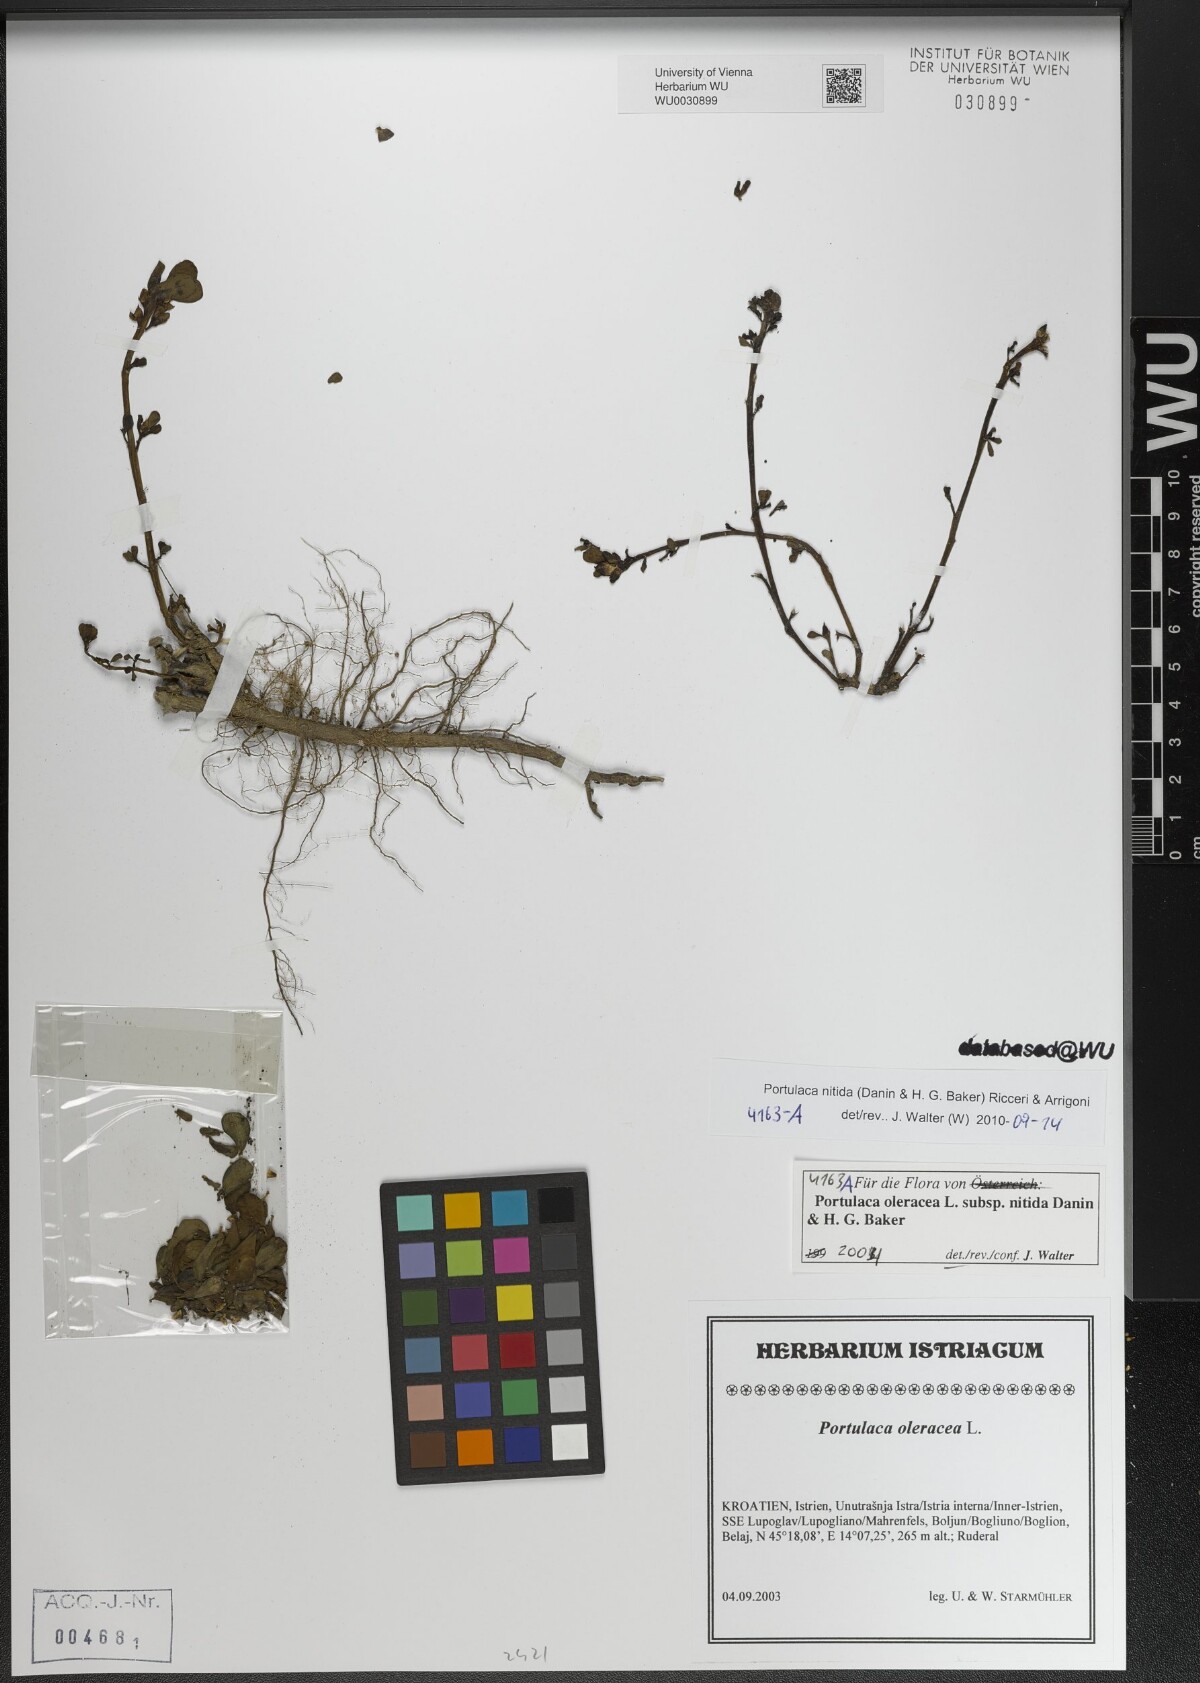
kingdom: Plantae
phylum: Tracheophyta
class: Magnoliopsida
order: Caryophyllales
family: Portulacaceae
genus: Portulaca
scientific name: Portulaca nitida
